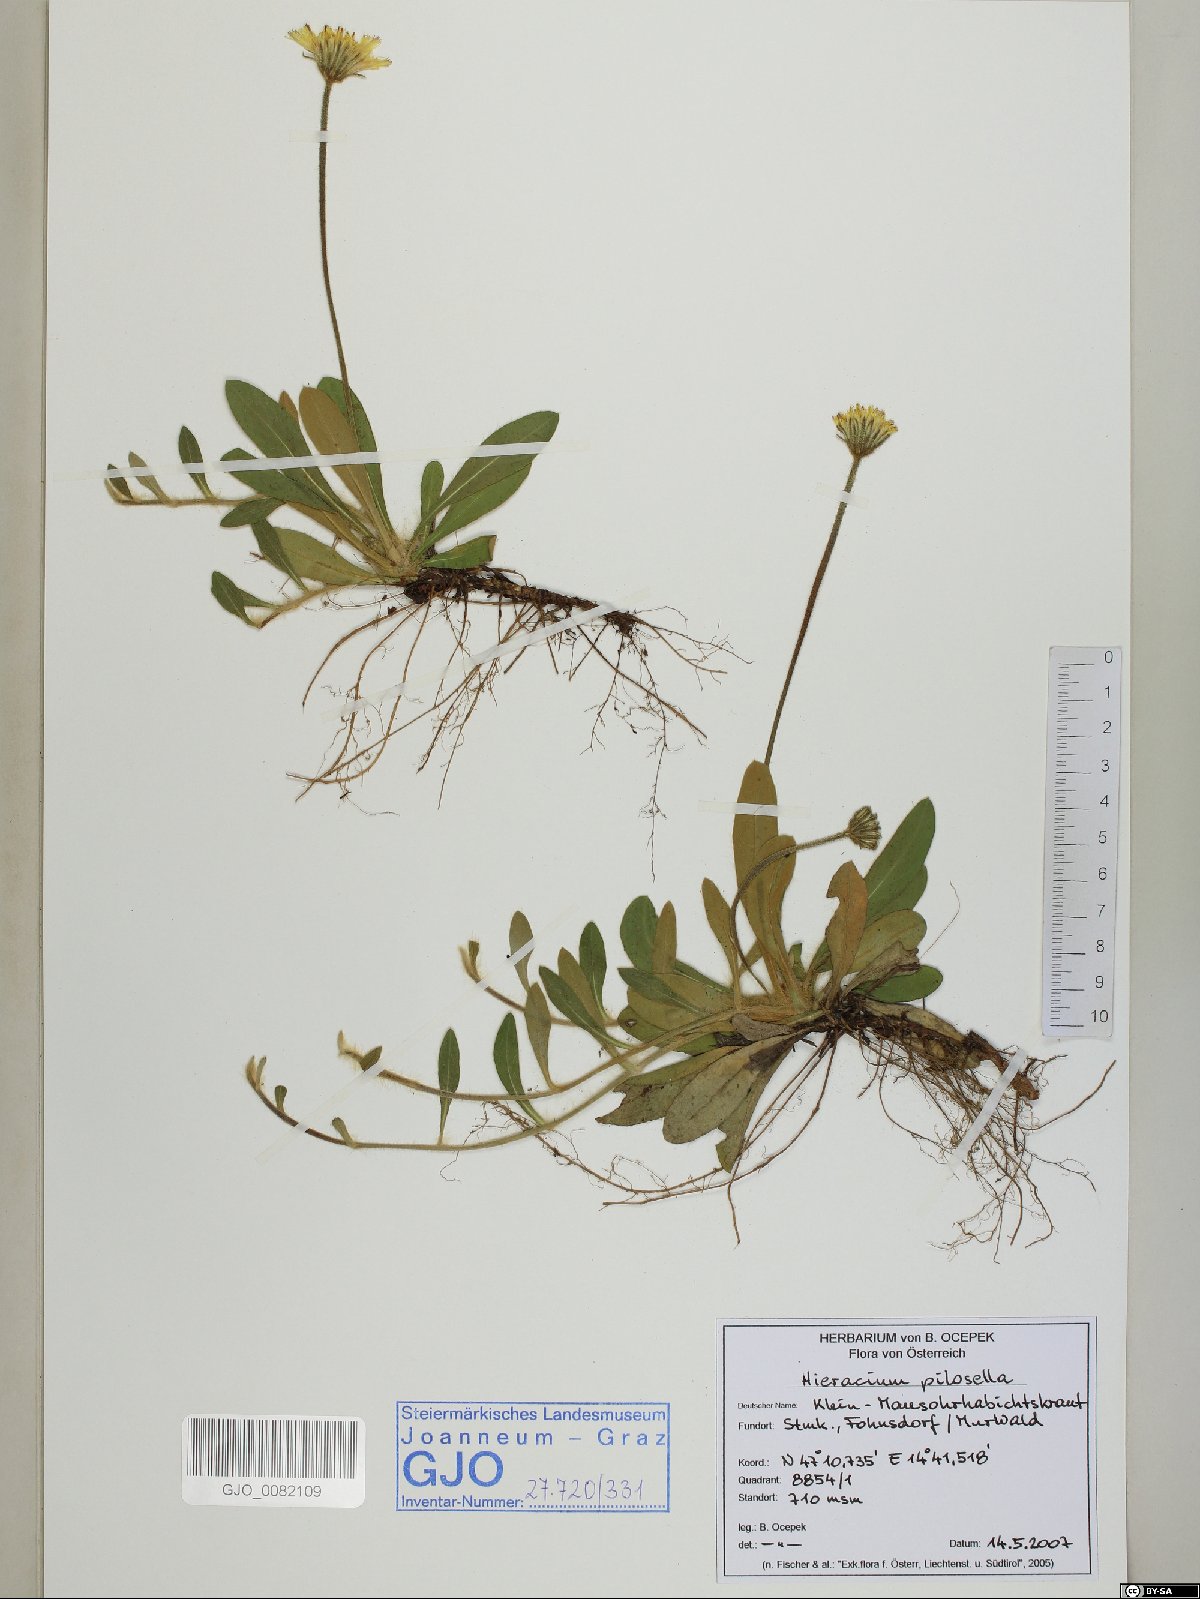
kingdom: Plantae
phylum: Tracheophyta
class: Magnoliopsida
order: Asterales
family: Asteraceae
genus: Pilosella
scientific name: Pilosella officinarum
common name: Mouse-ear hawkweed
